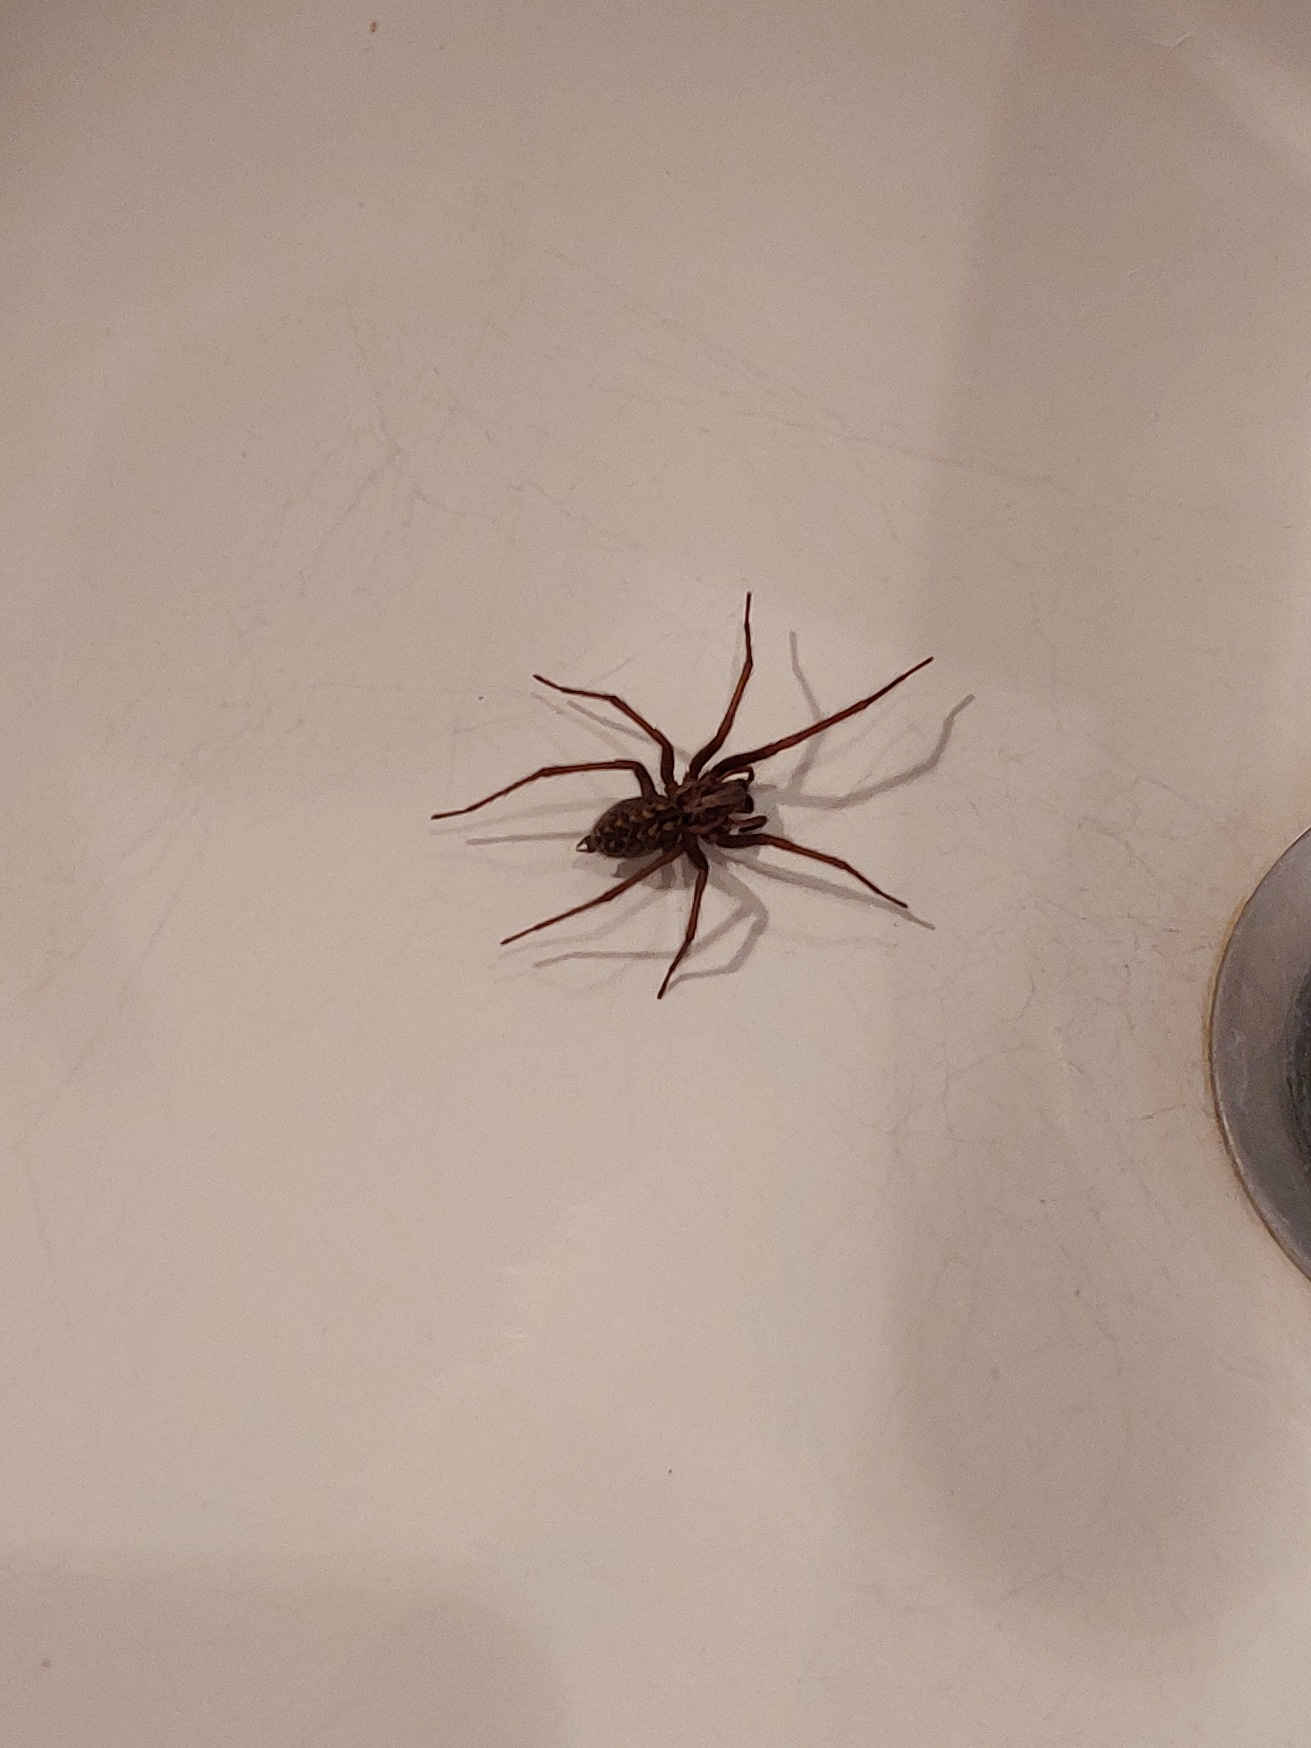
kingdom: Animalia
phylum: Arthropoda
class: Arachnida
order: Araneae
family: Agelenidae
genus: Eratigena
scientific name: Eratigena atrica
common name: Stor husedderkop
